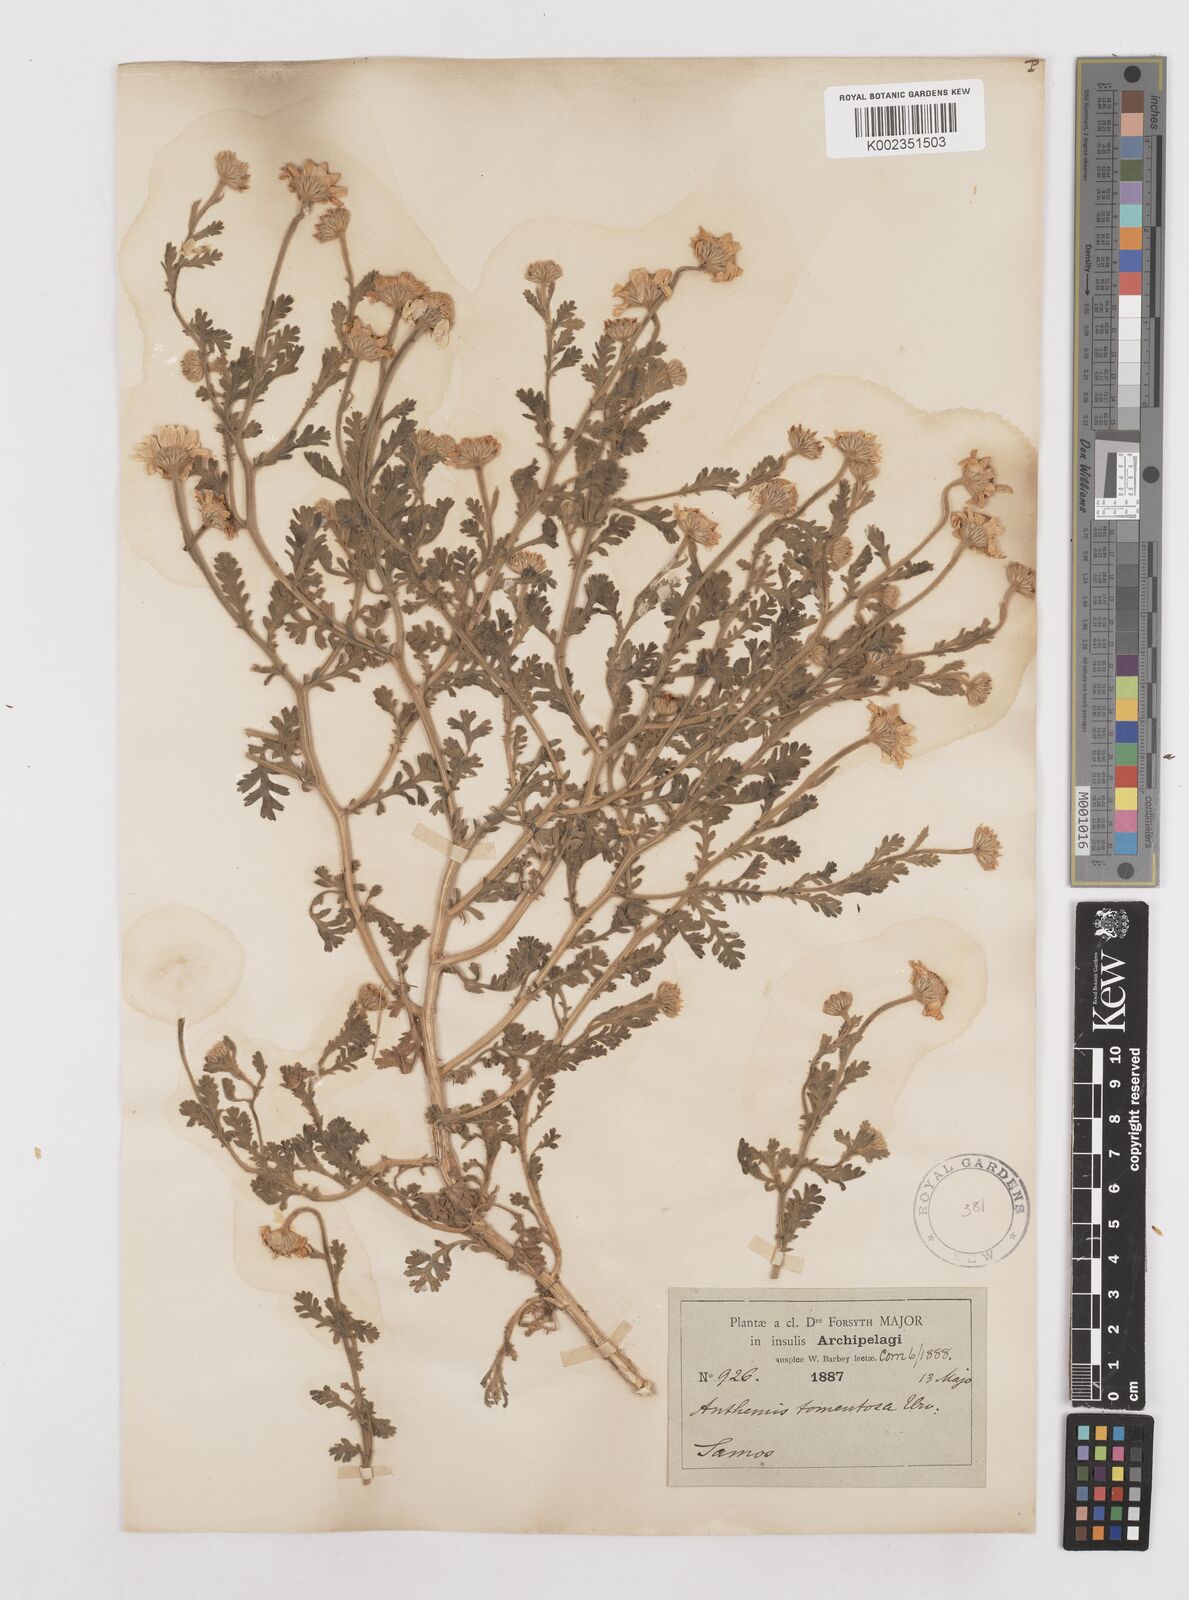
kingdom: Plantae
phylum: Tracheophyta
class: Magnoliopsida
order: Asterales
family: Asteraceae
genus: Anthemis
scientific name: Anthemis tomentosa
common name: Woolly chamomile
